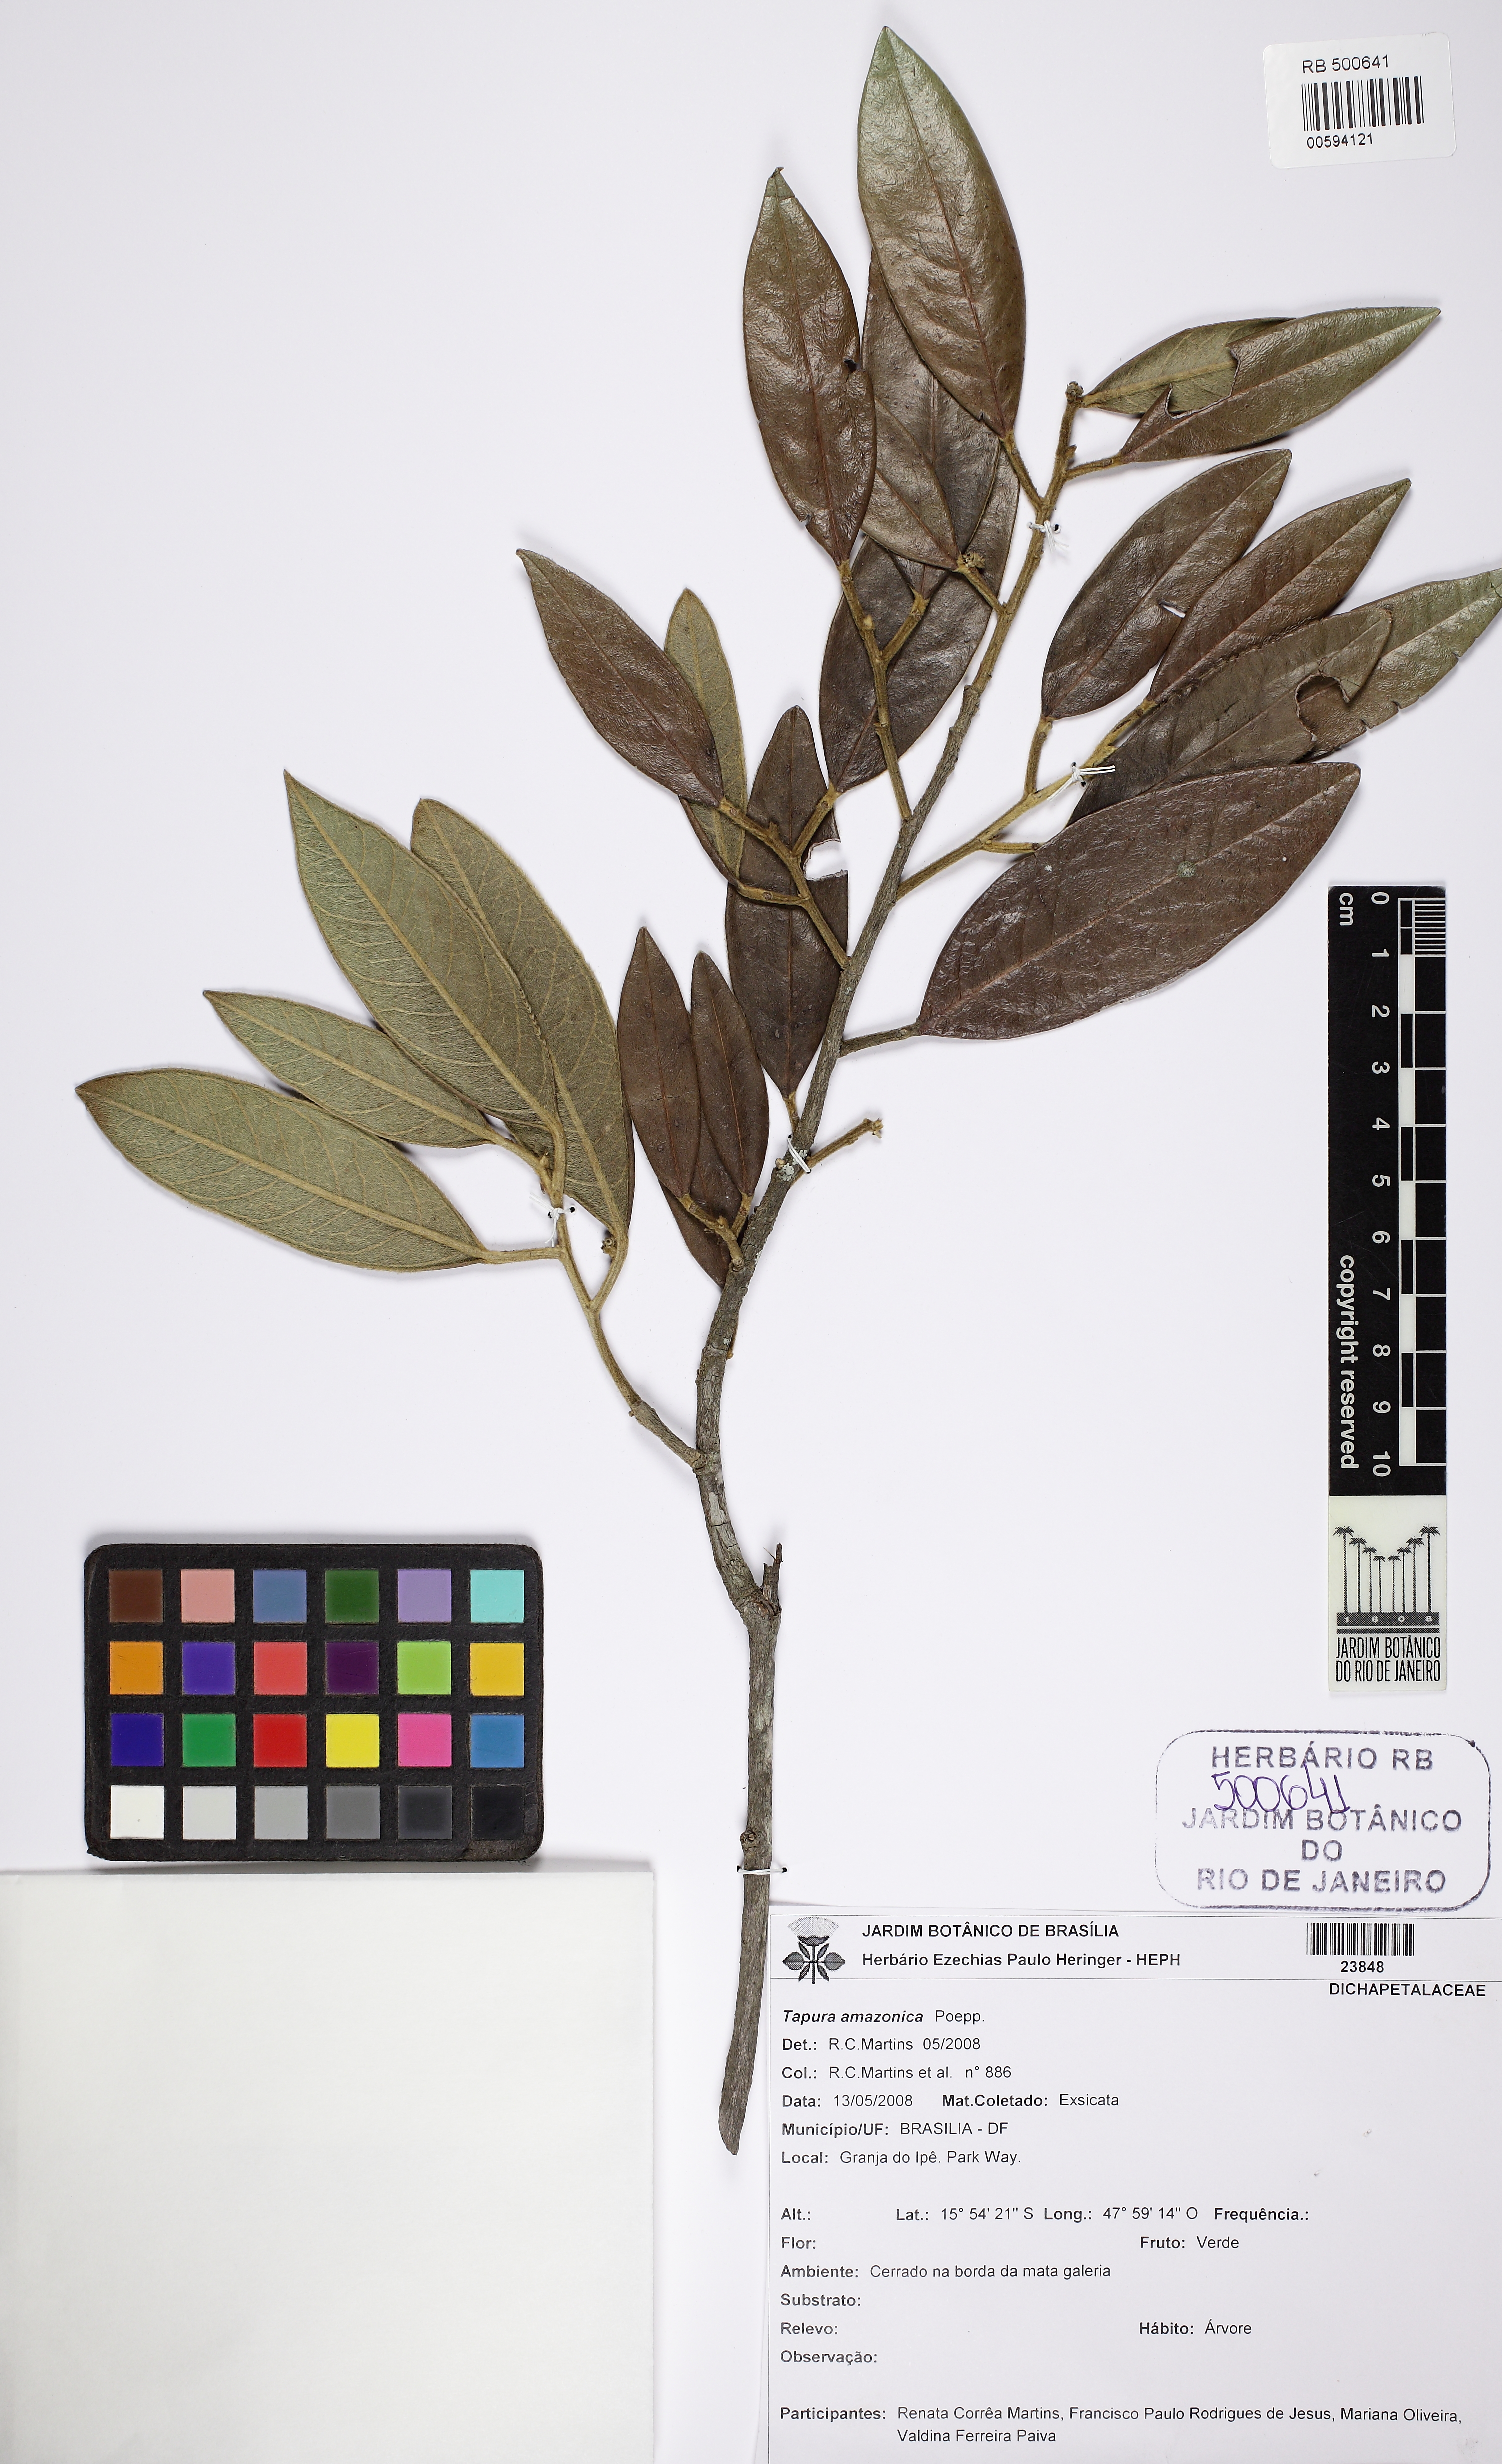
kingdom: Plantae
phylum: Tracheophyta
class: Magnoliopsida
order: Malpighiales
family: Dichapetalaceae
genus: Tapura
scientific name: Tapura amazonica
